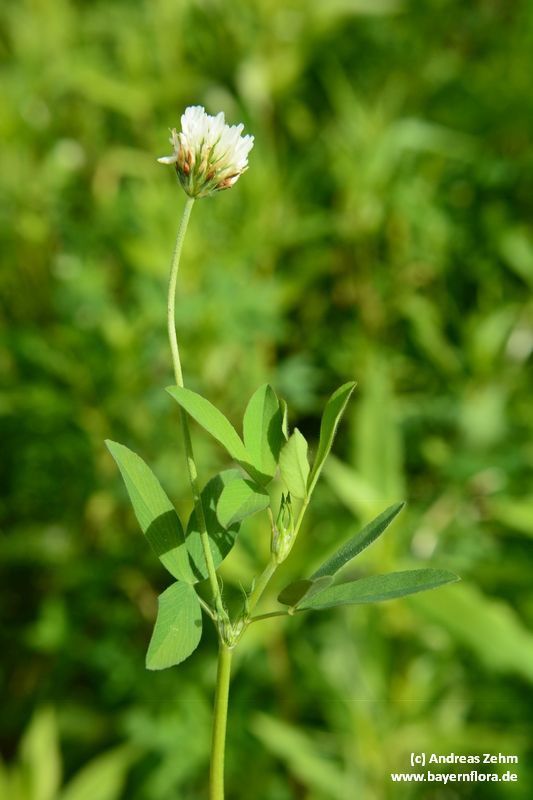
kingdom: Plantae
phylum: Tracheophyta
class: Magnoliopsida
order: Fabales
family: Fabaceae
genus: Trifolium
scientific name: Trifolium alexandrinum
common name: Egyptian clover
